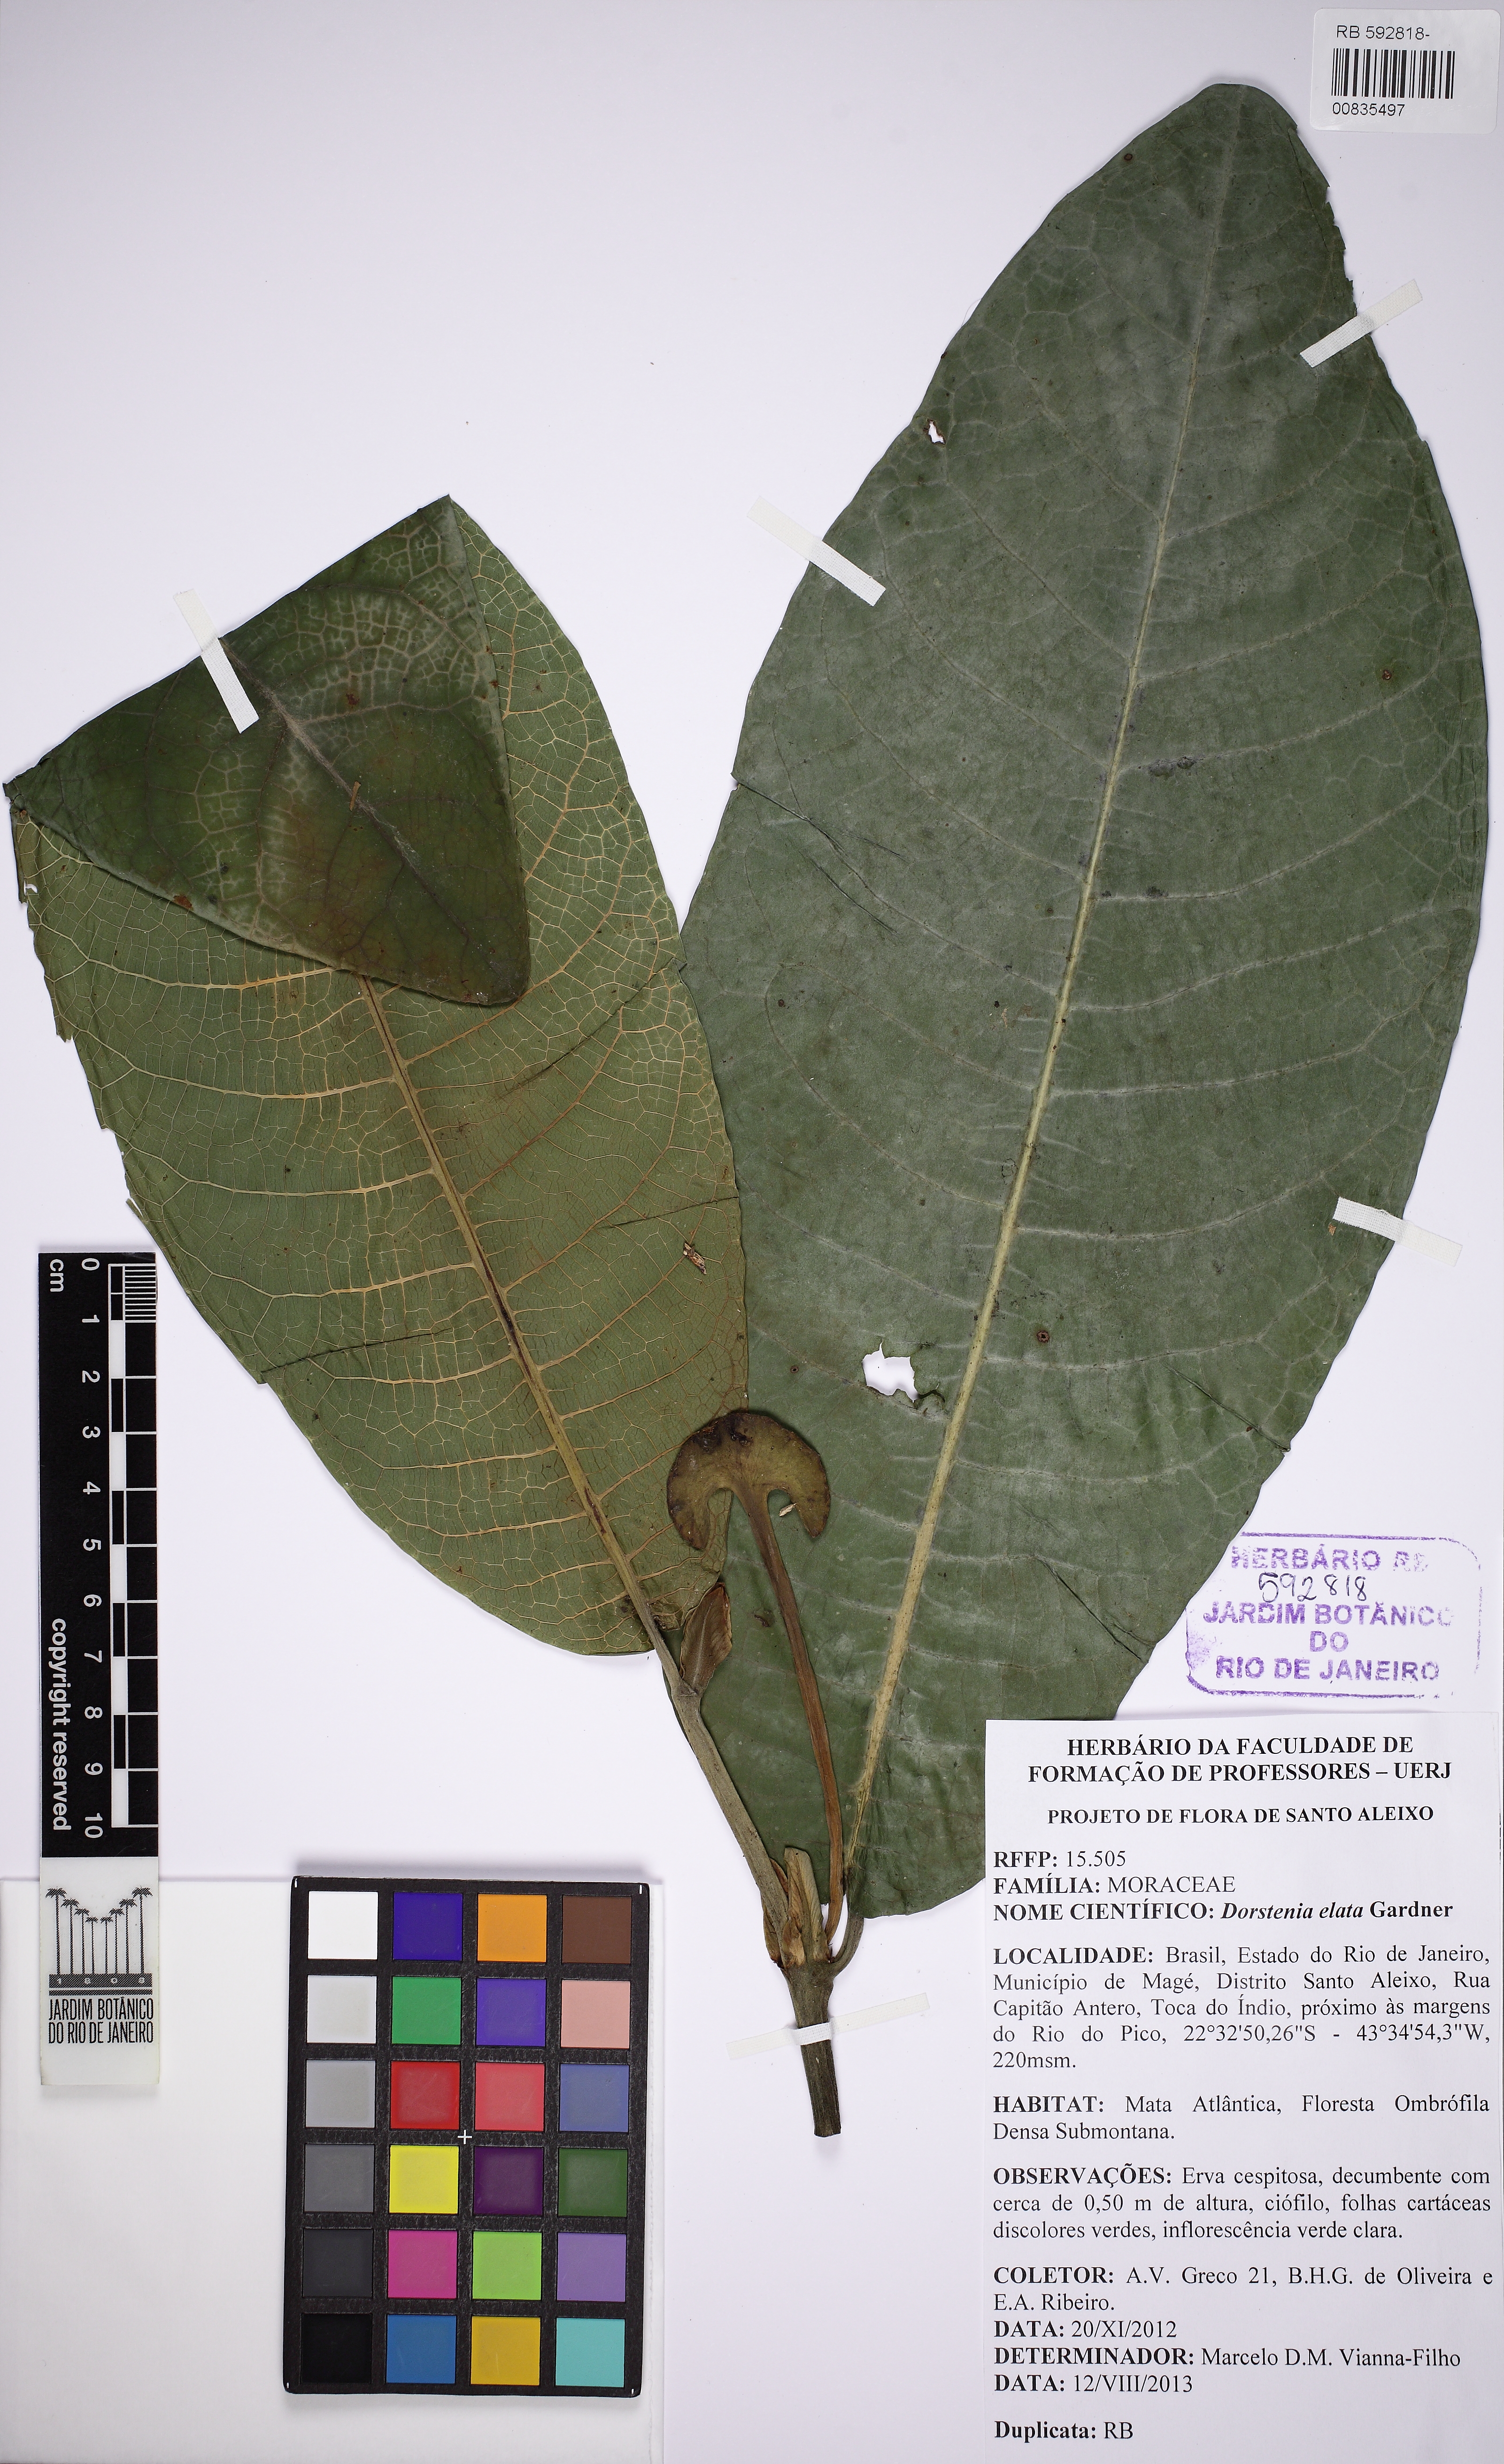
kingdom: Plantae
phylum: Tracheophyta
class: Magnoliopsida
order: Rosales
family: Moraceae
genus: Dorstenia
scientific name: Dorstenia elata
